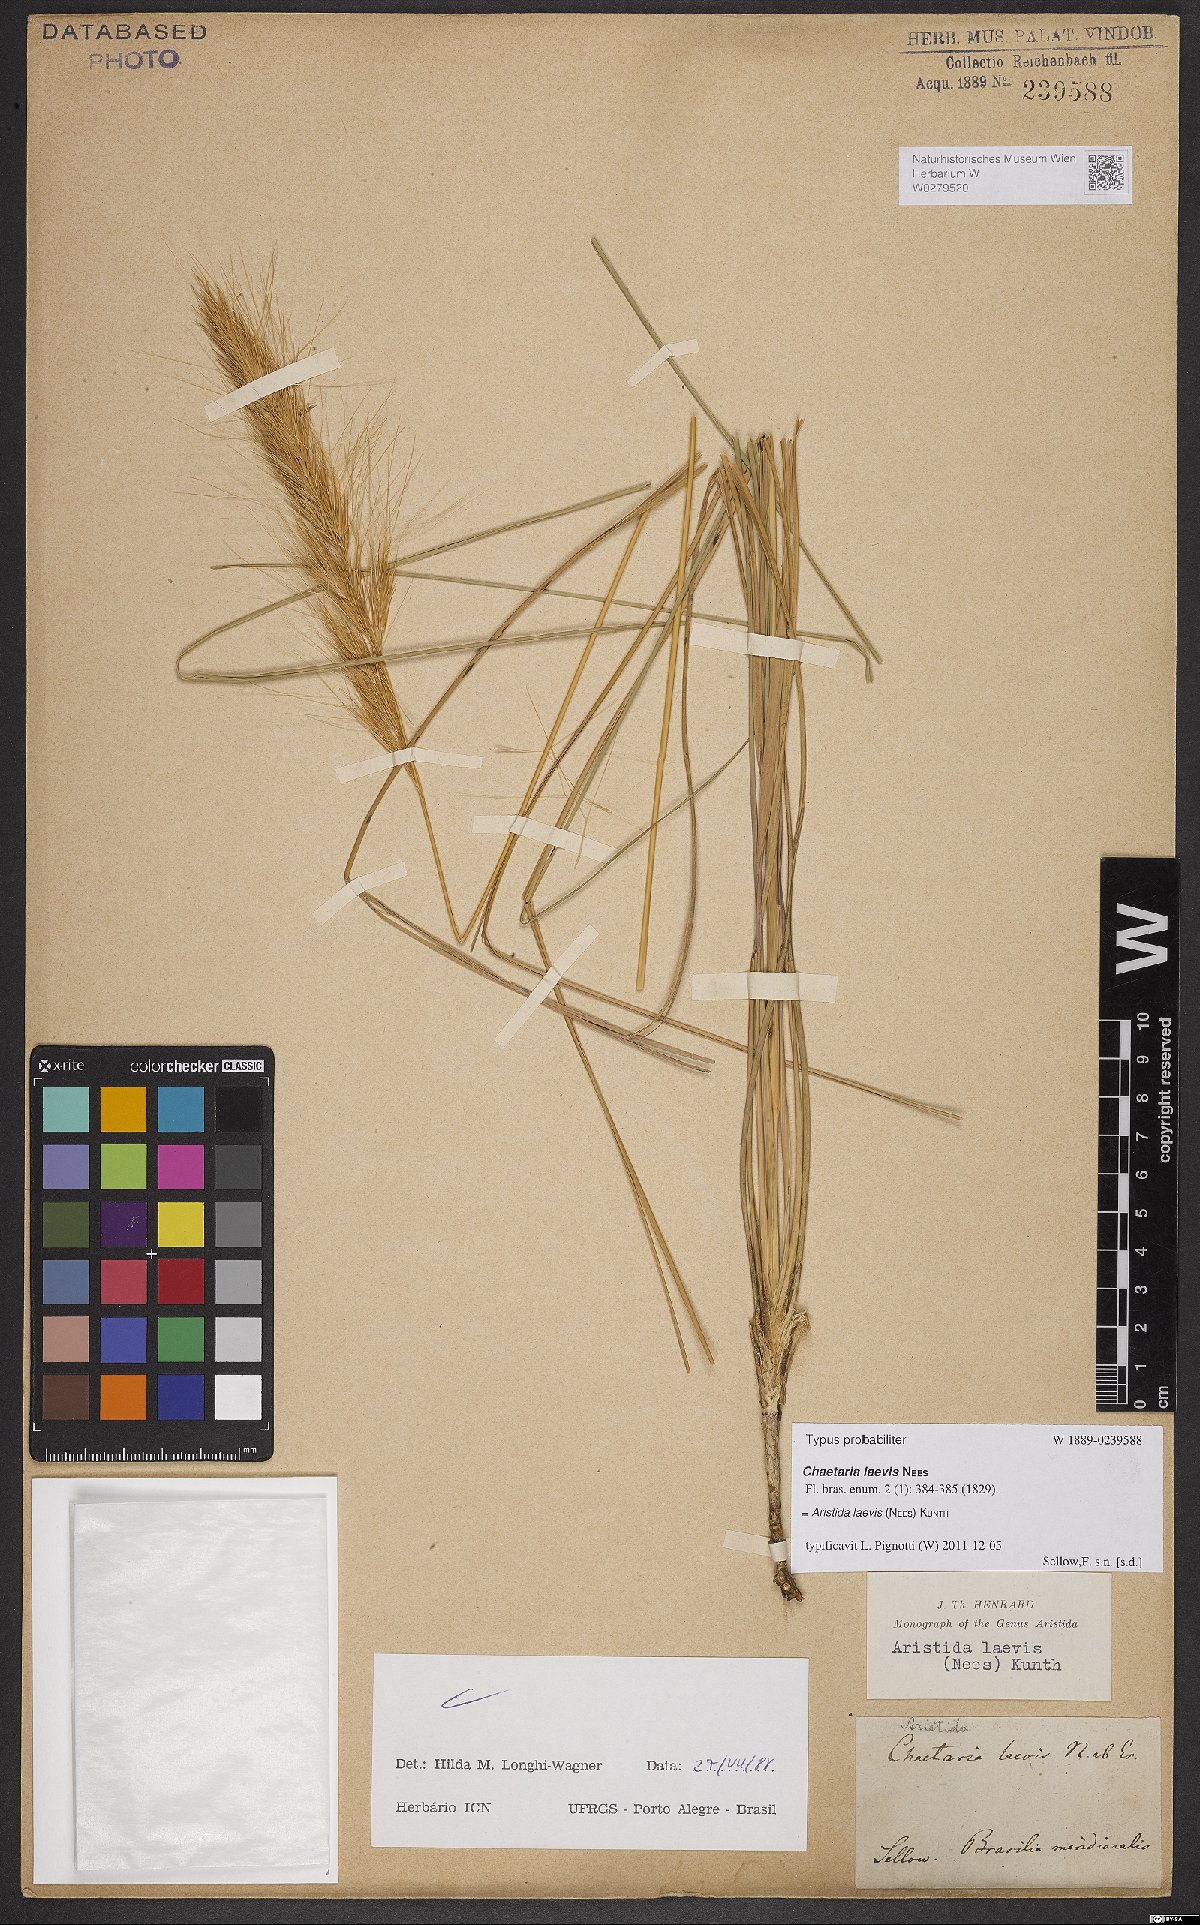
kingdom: Plantae
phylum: Tracheophyta
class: Liliopsida
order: Poales
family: Poaceae
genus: Aristida
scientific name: Aristida laevis
